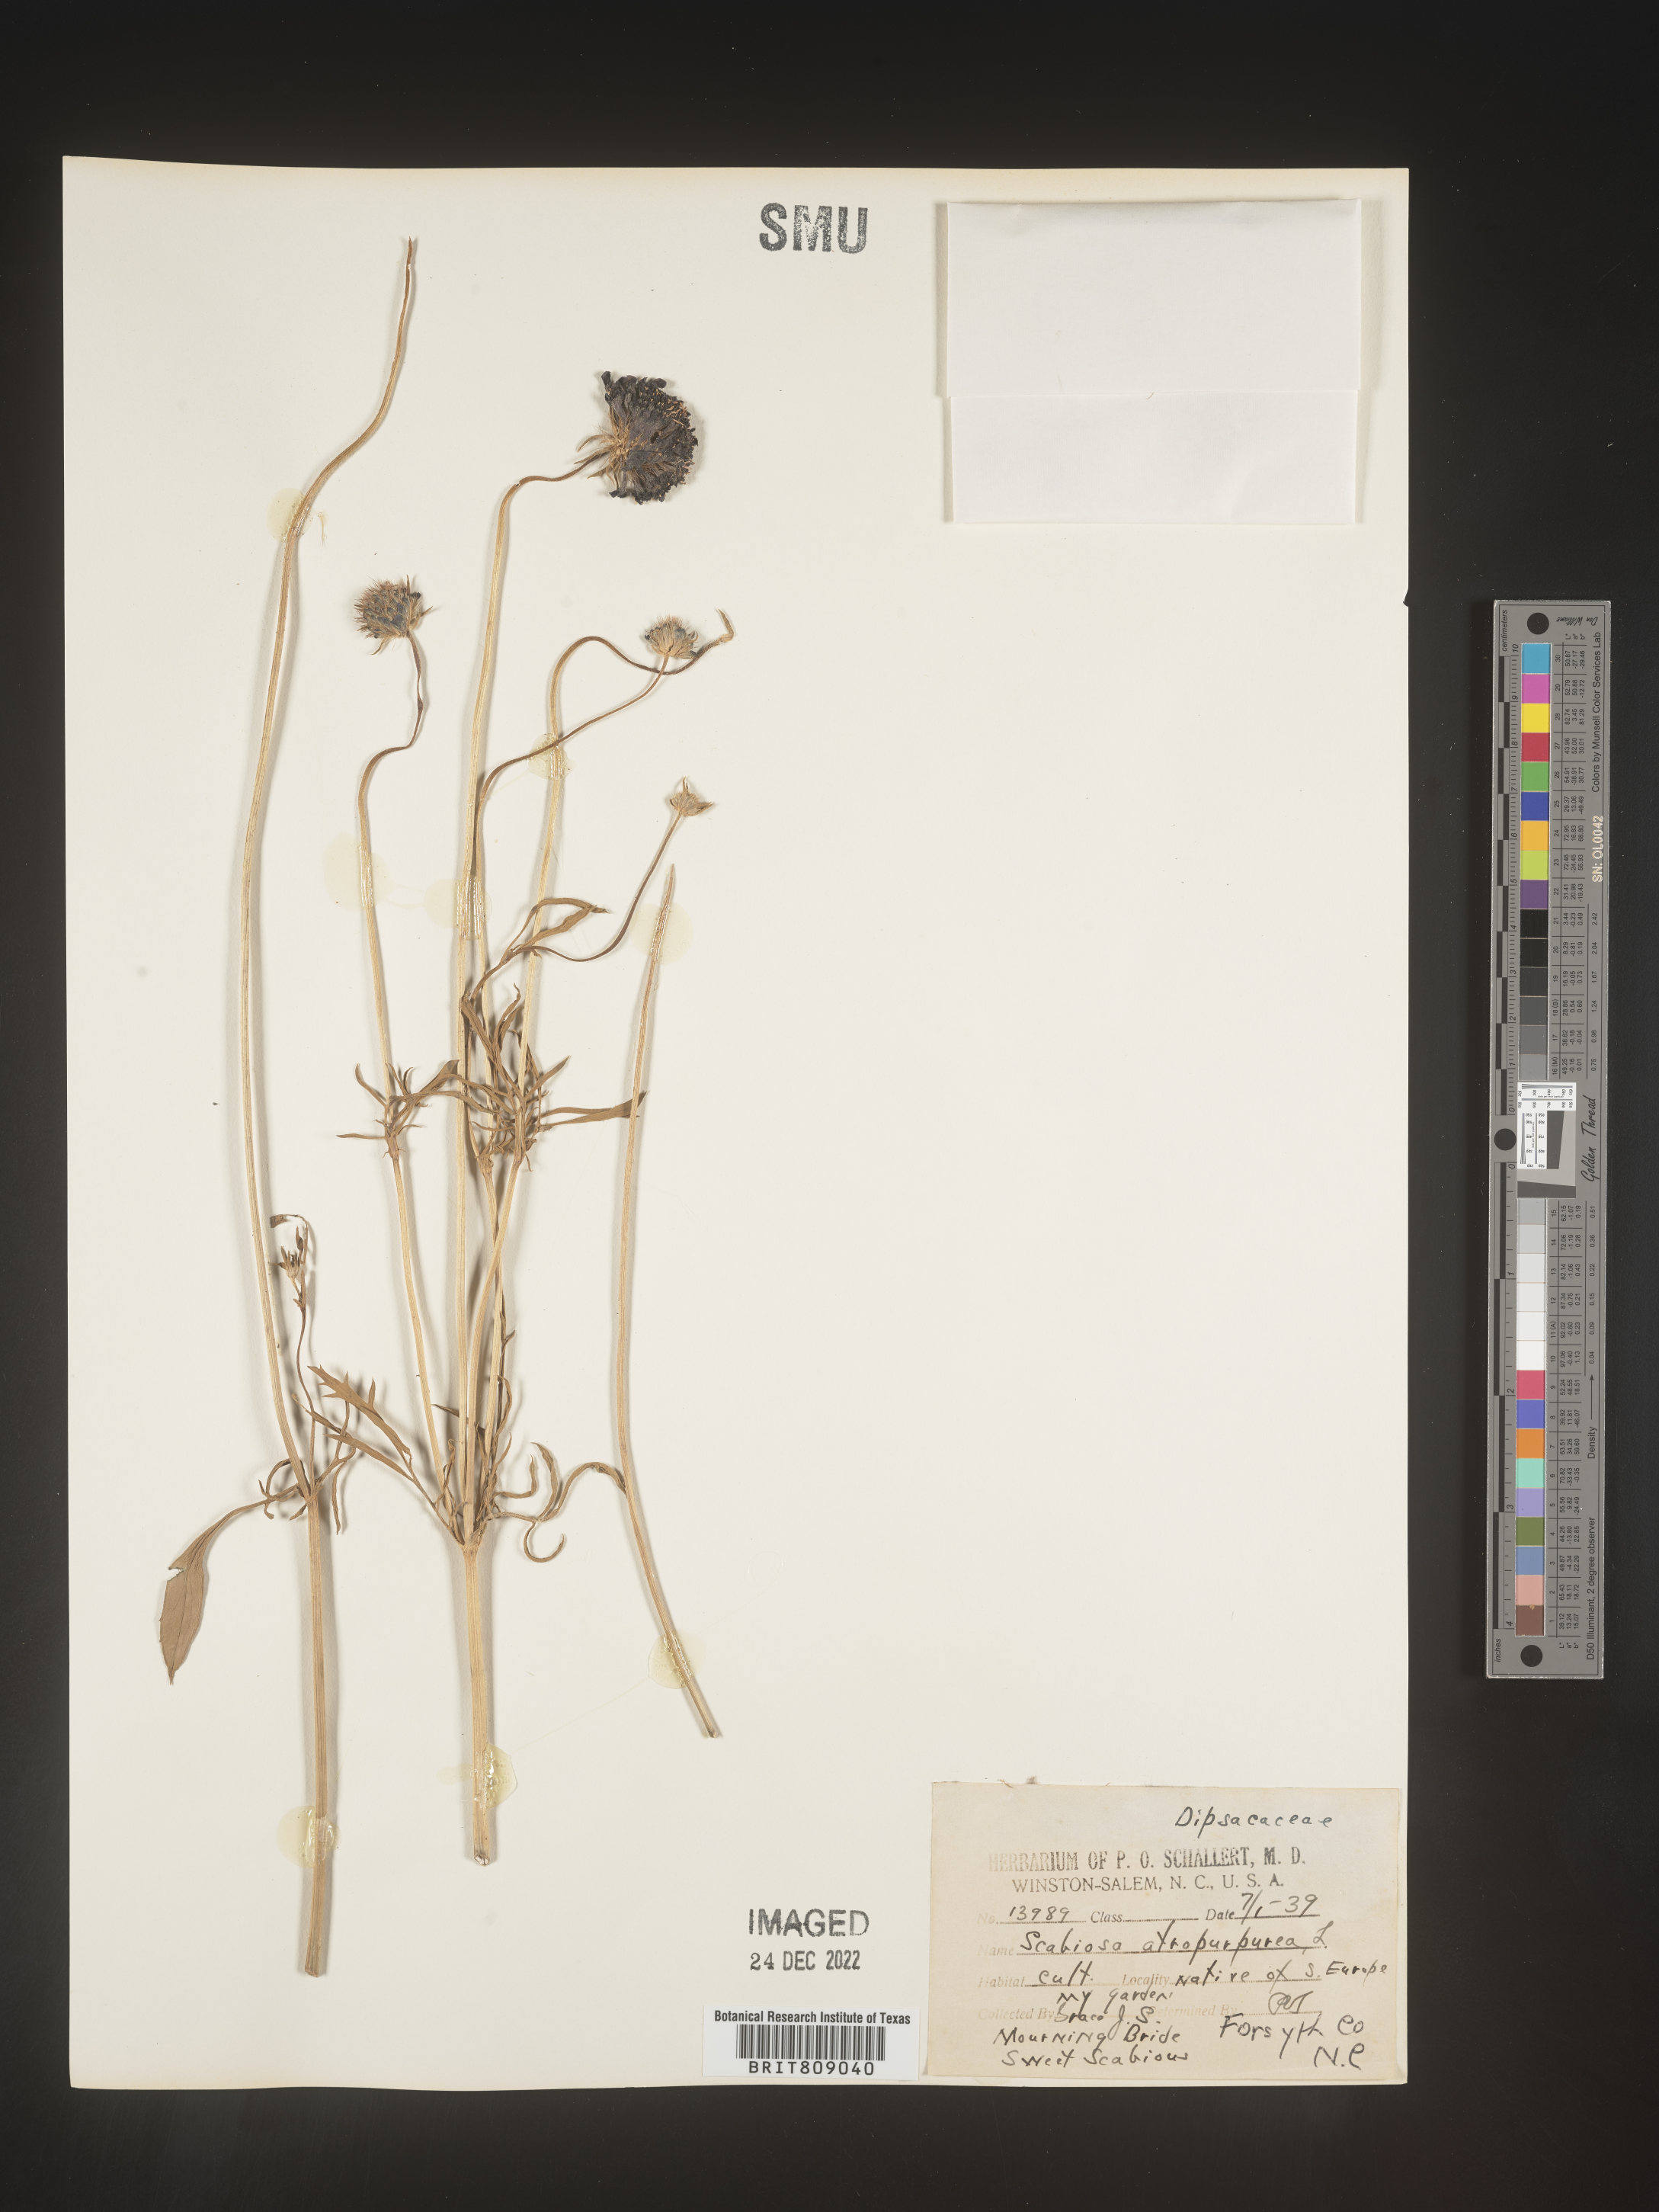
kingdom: Plantae
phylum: Tracheophyta
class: Magnoliopsida
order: Dipsacales
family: Caprifoliaceae
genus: Scabiosa
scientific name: Scabiosa
